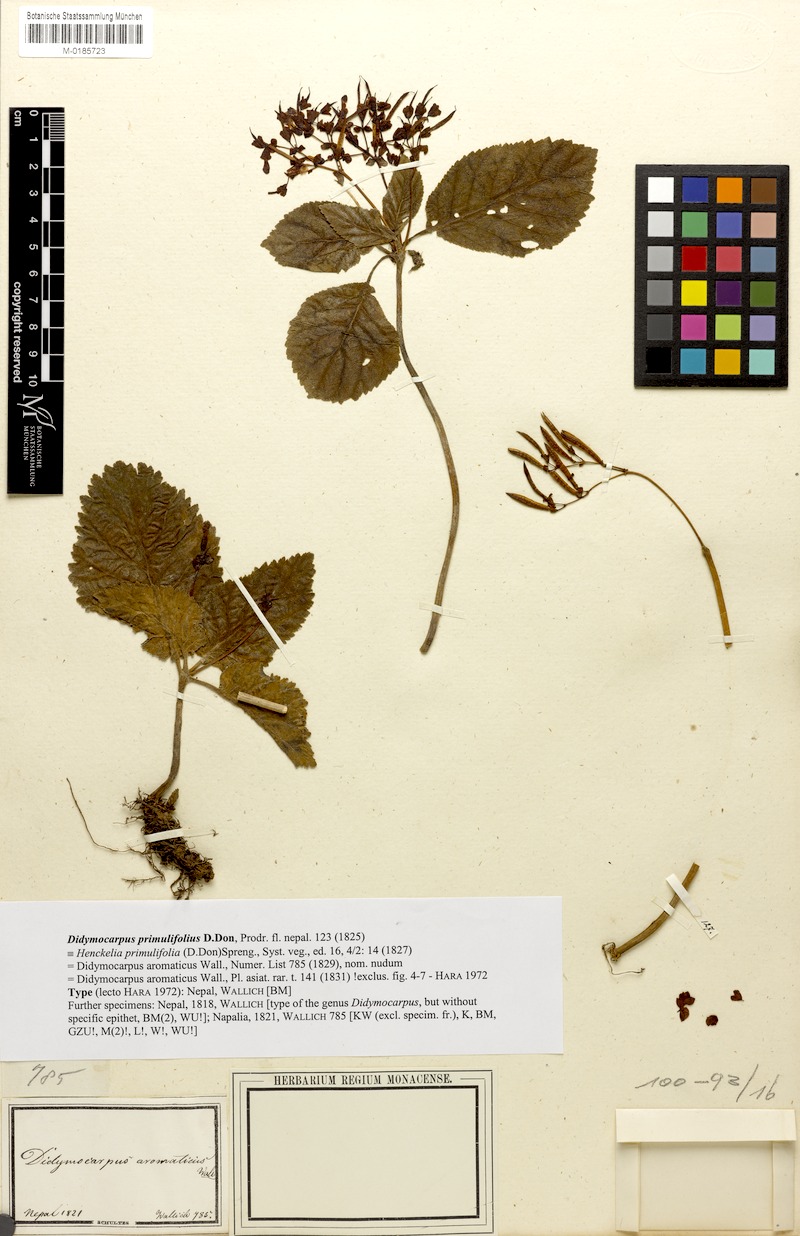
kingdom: Plantae
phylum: Tracheophyta
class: Magnoliopsida
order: Lamiales
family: Gesneriaceae
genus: Didymocarpus
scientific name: Didymocarpus primulifolius
